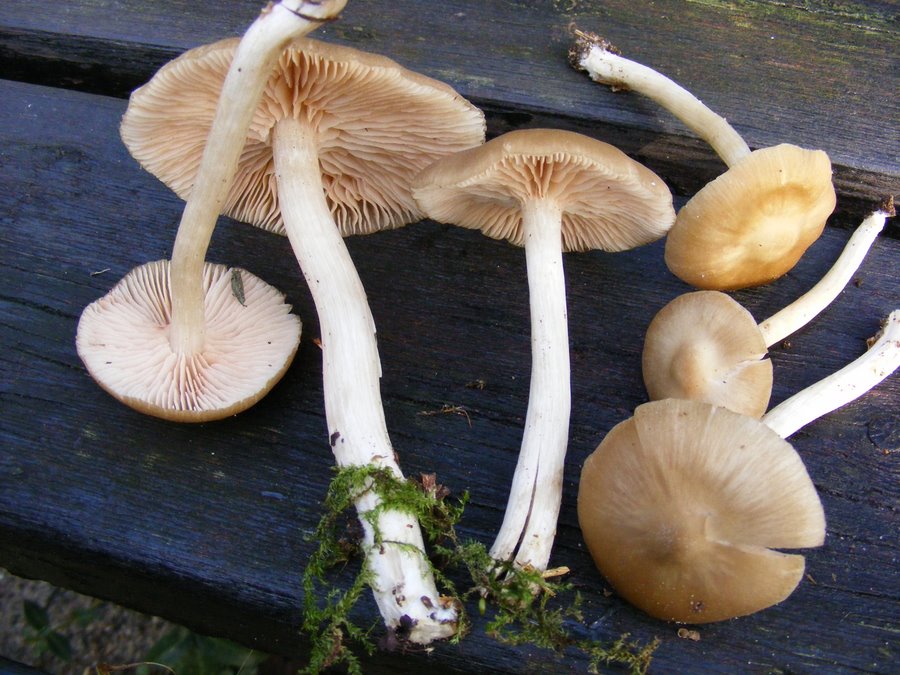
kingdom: Fungi
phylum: Basidiomycota
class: Agaricomycetes
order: Agaricales
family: Entolomataceae
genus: Entoloma
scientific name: Entoloma sericatum
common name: rank rødblad
